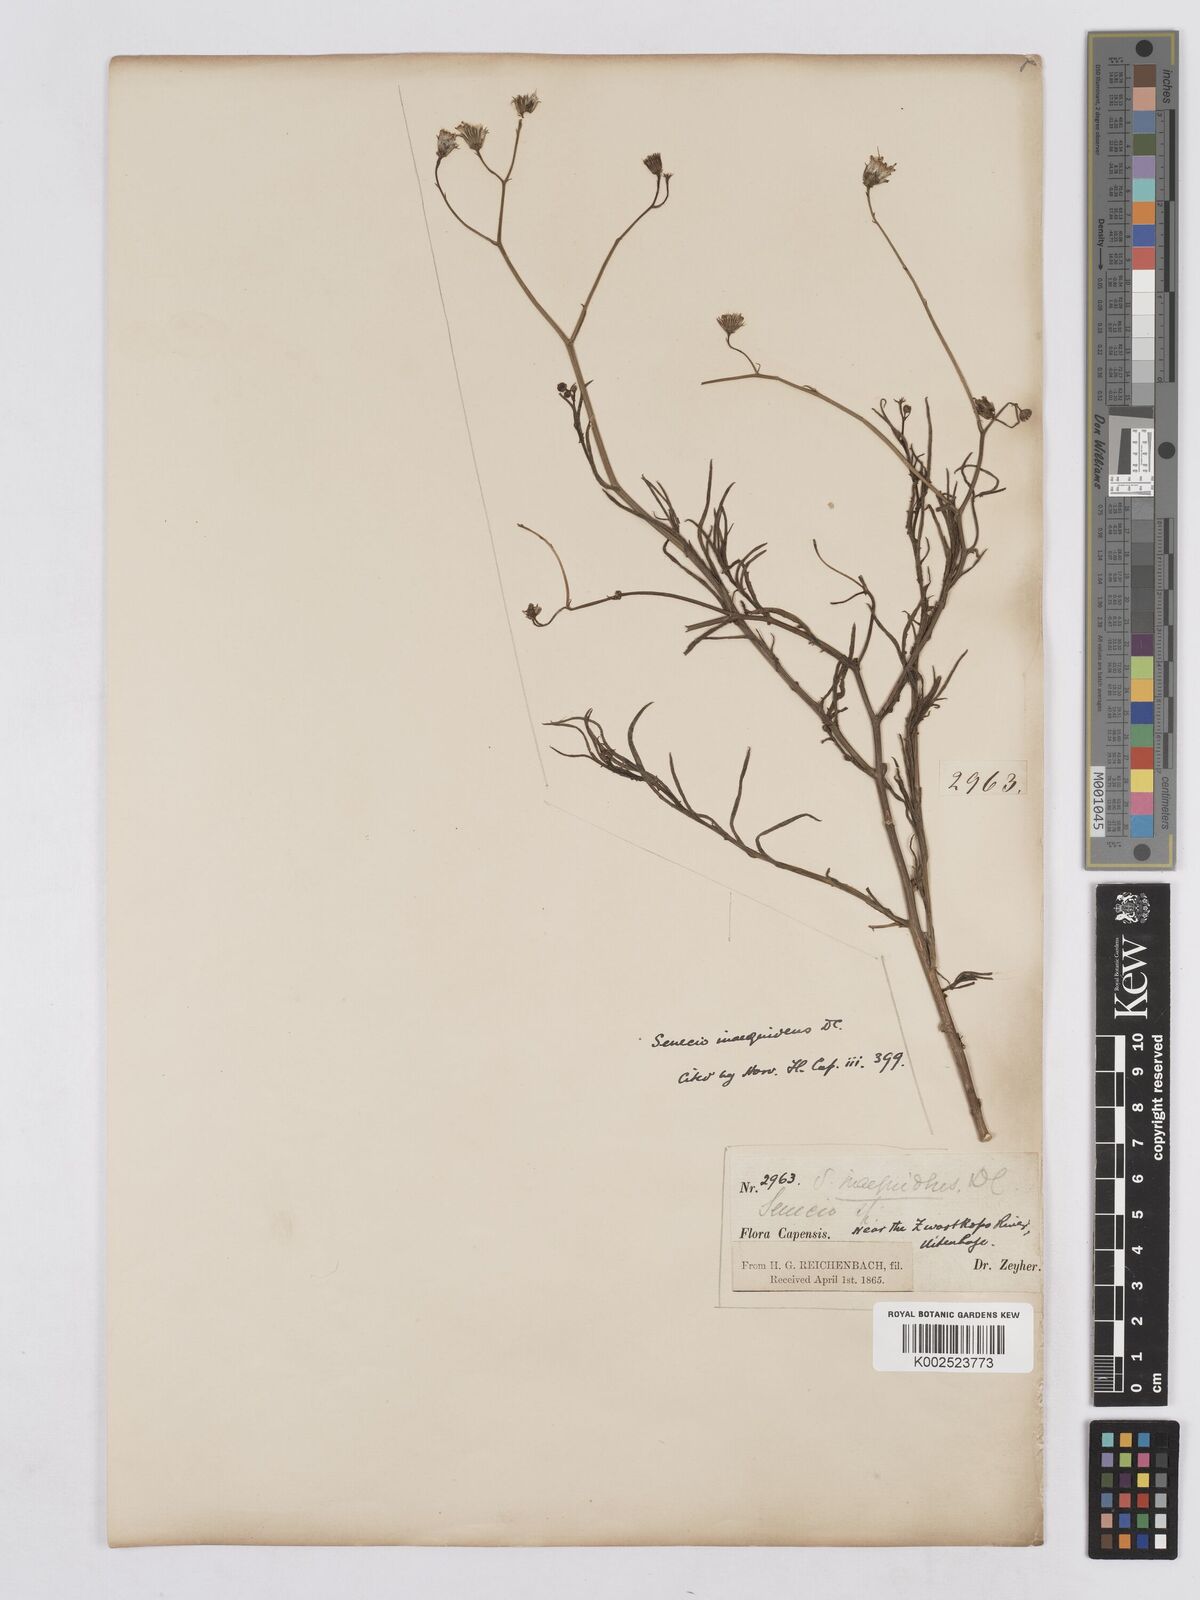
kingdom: Plantae
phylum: Tracheophyta
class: Magnoliopsida
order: Asterales
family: Asteraceae
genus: Senecio
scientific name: Senecio vimineus
